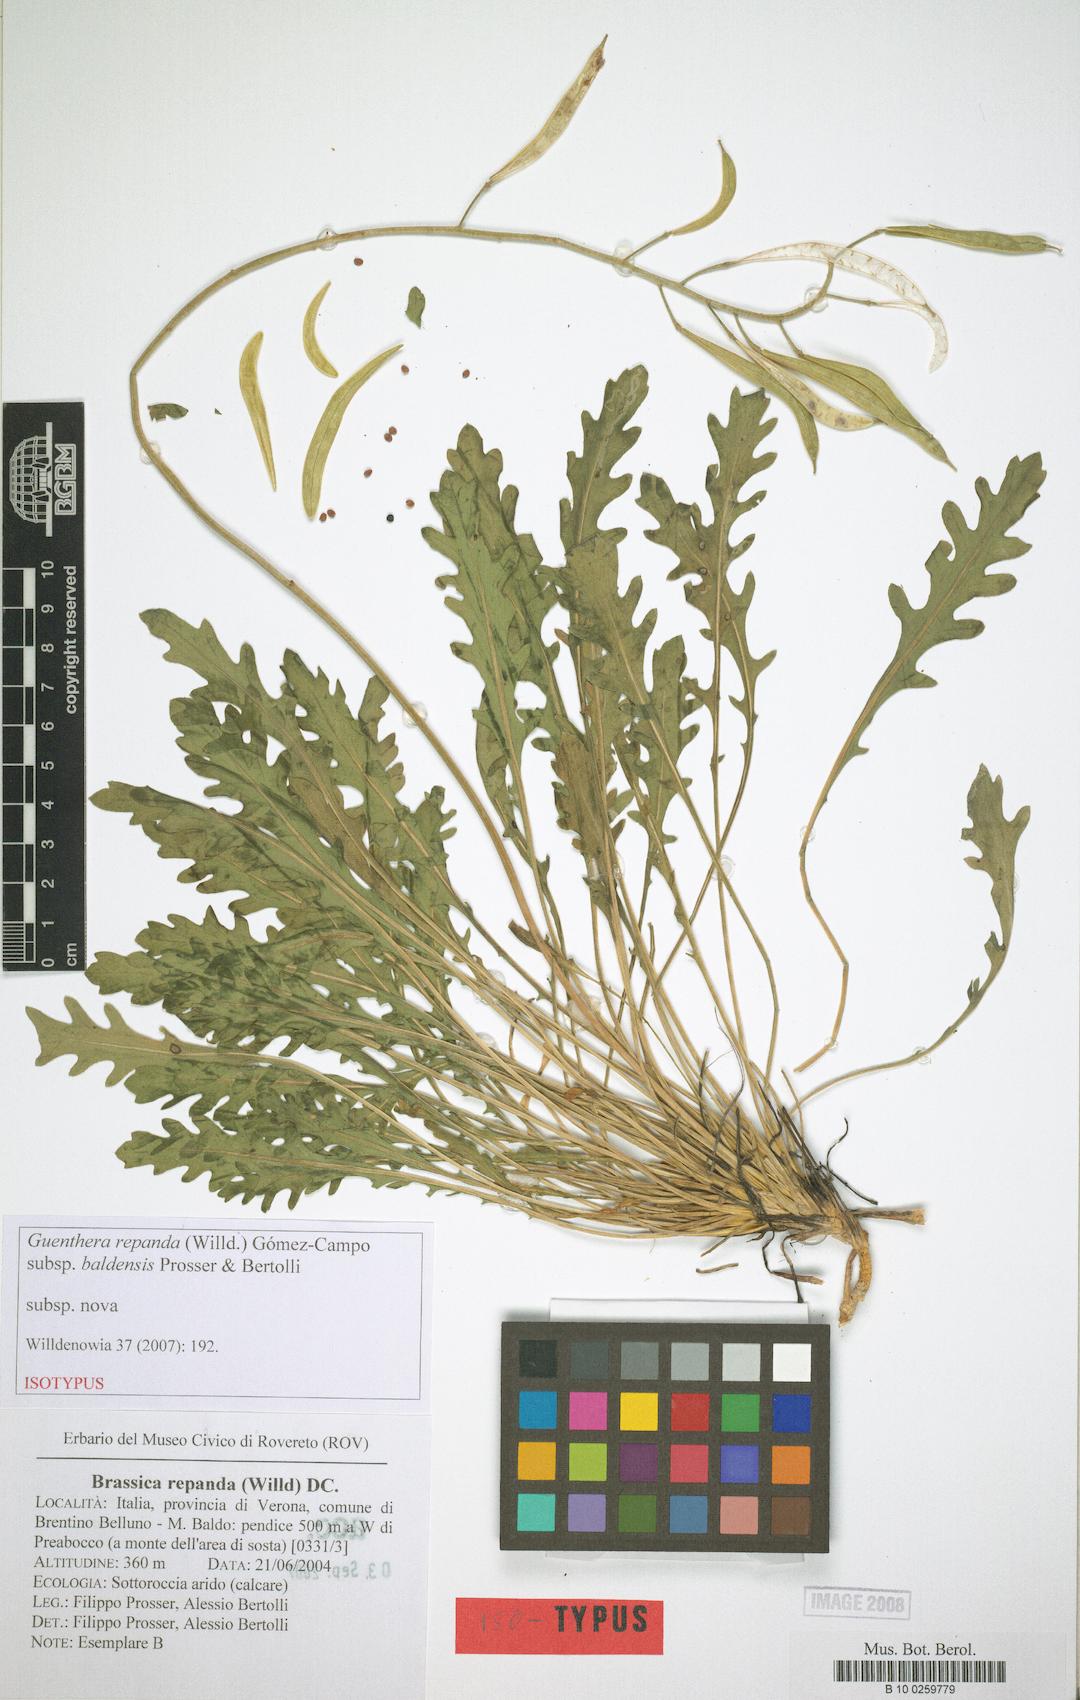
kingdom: Plantae
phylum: Tracheophyta
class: Magnoliopsida
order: Brassicales
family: Brassicaceae
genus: Brassica
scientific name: Brassica baldensis
